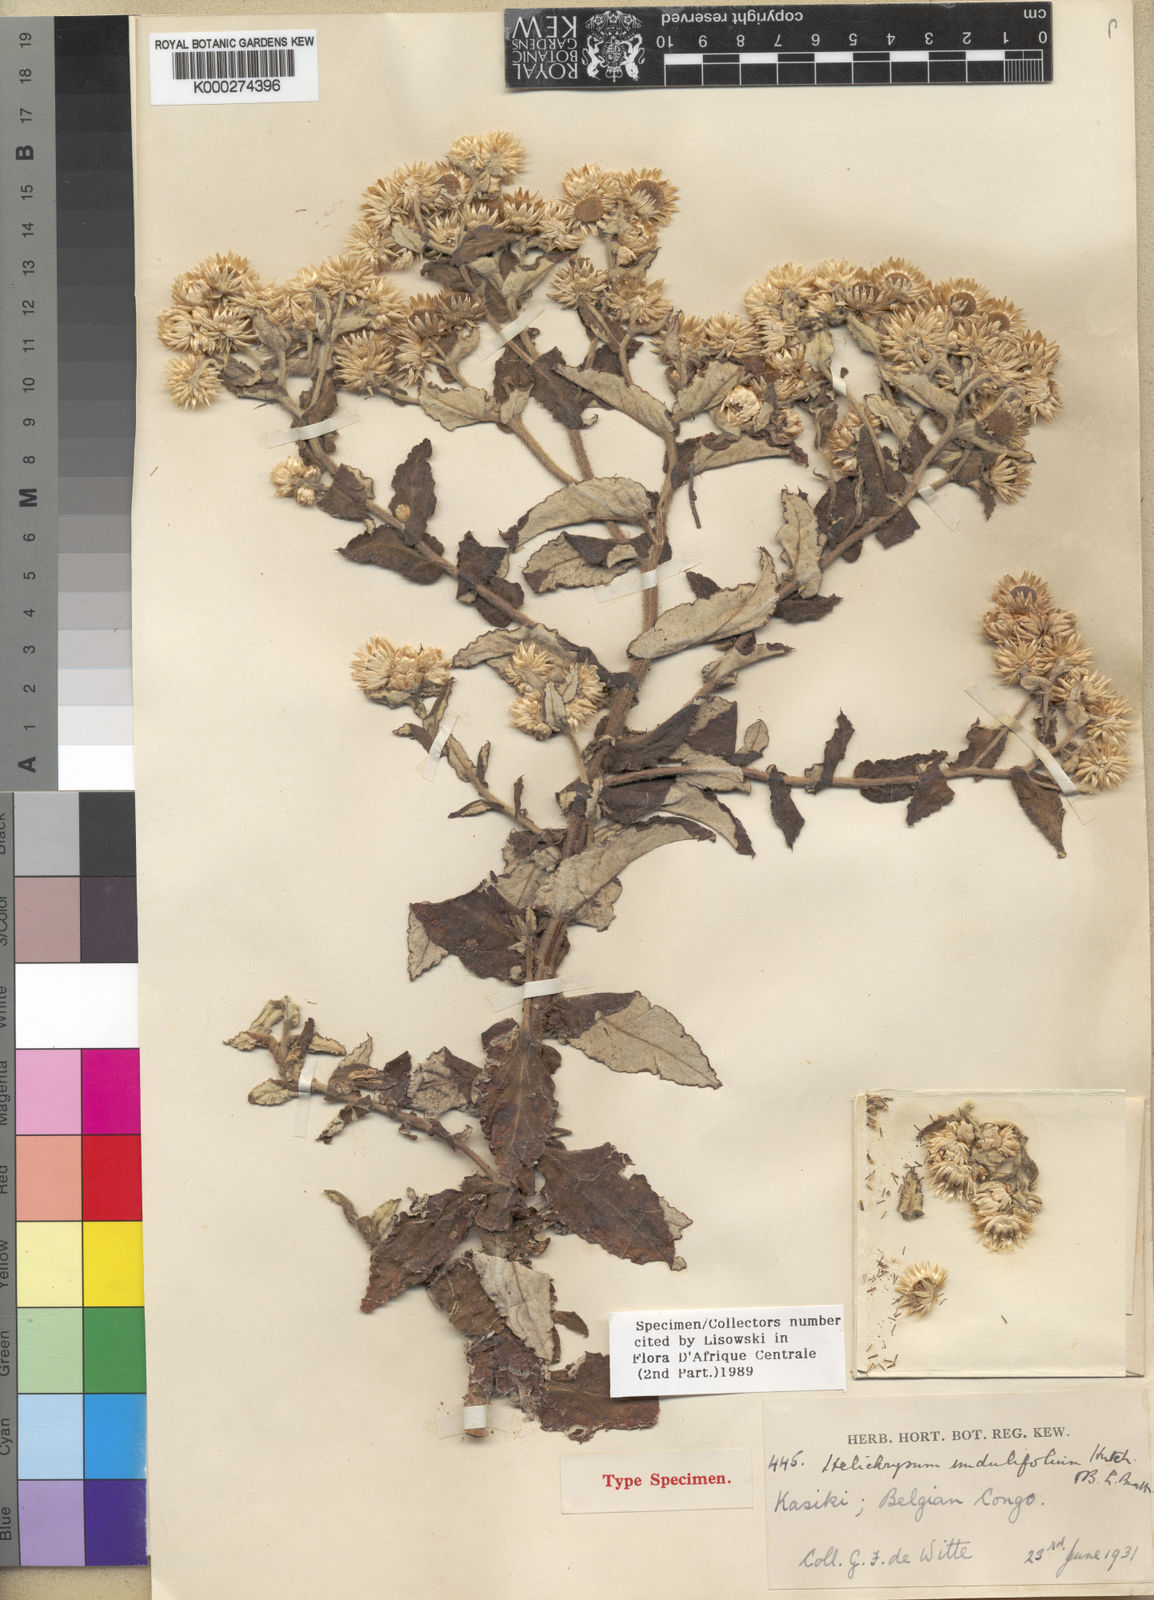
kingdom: Plantae
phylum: Tracheophyta
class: Magnoliopsida
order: Asterales
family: Asteraceae
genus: Helichrysum
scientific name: Helichrysum undulifolium
